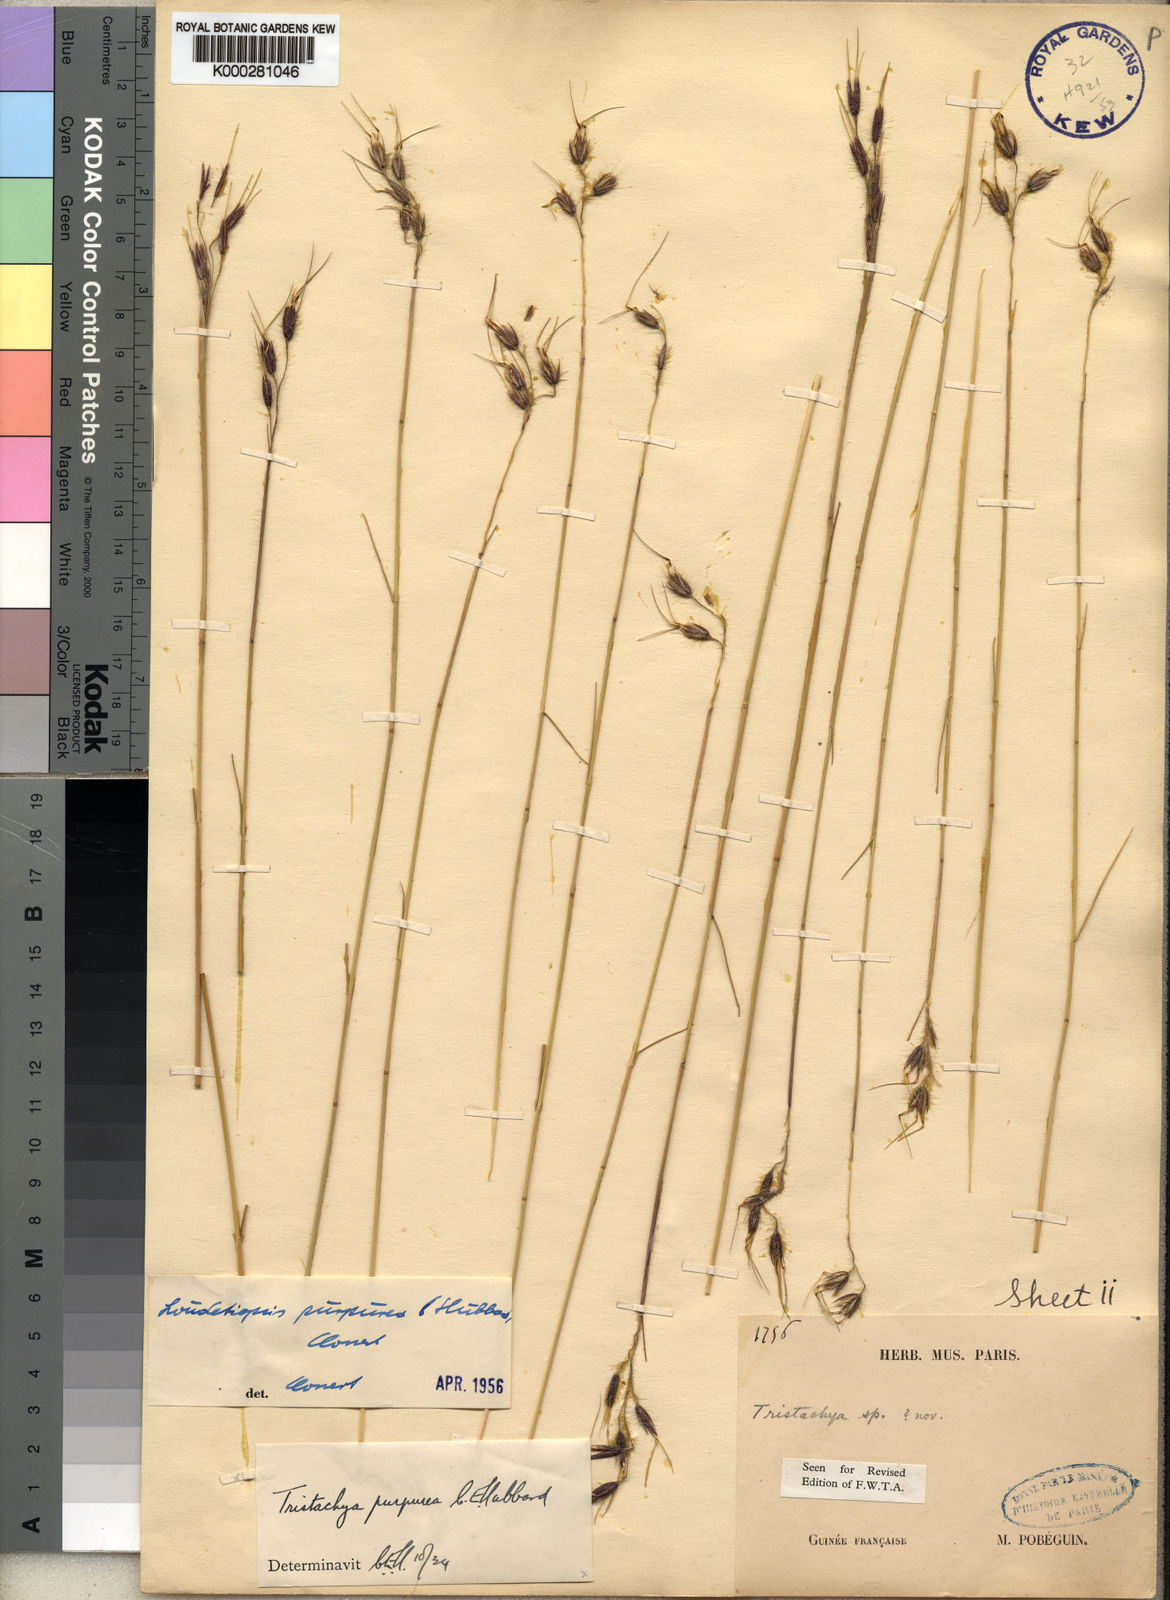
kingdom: Plantae
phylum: Tracheophyta
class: Liliopsida
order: Poales
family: Poaceae
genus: Dilophotriche
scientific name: Dilophotriche
